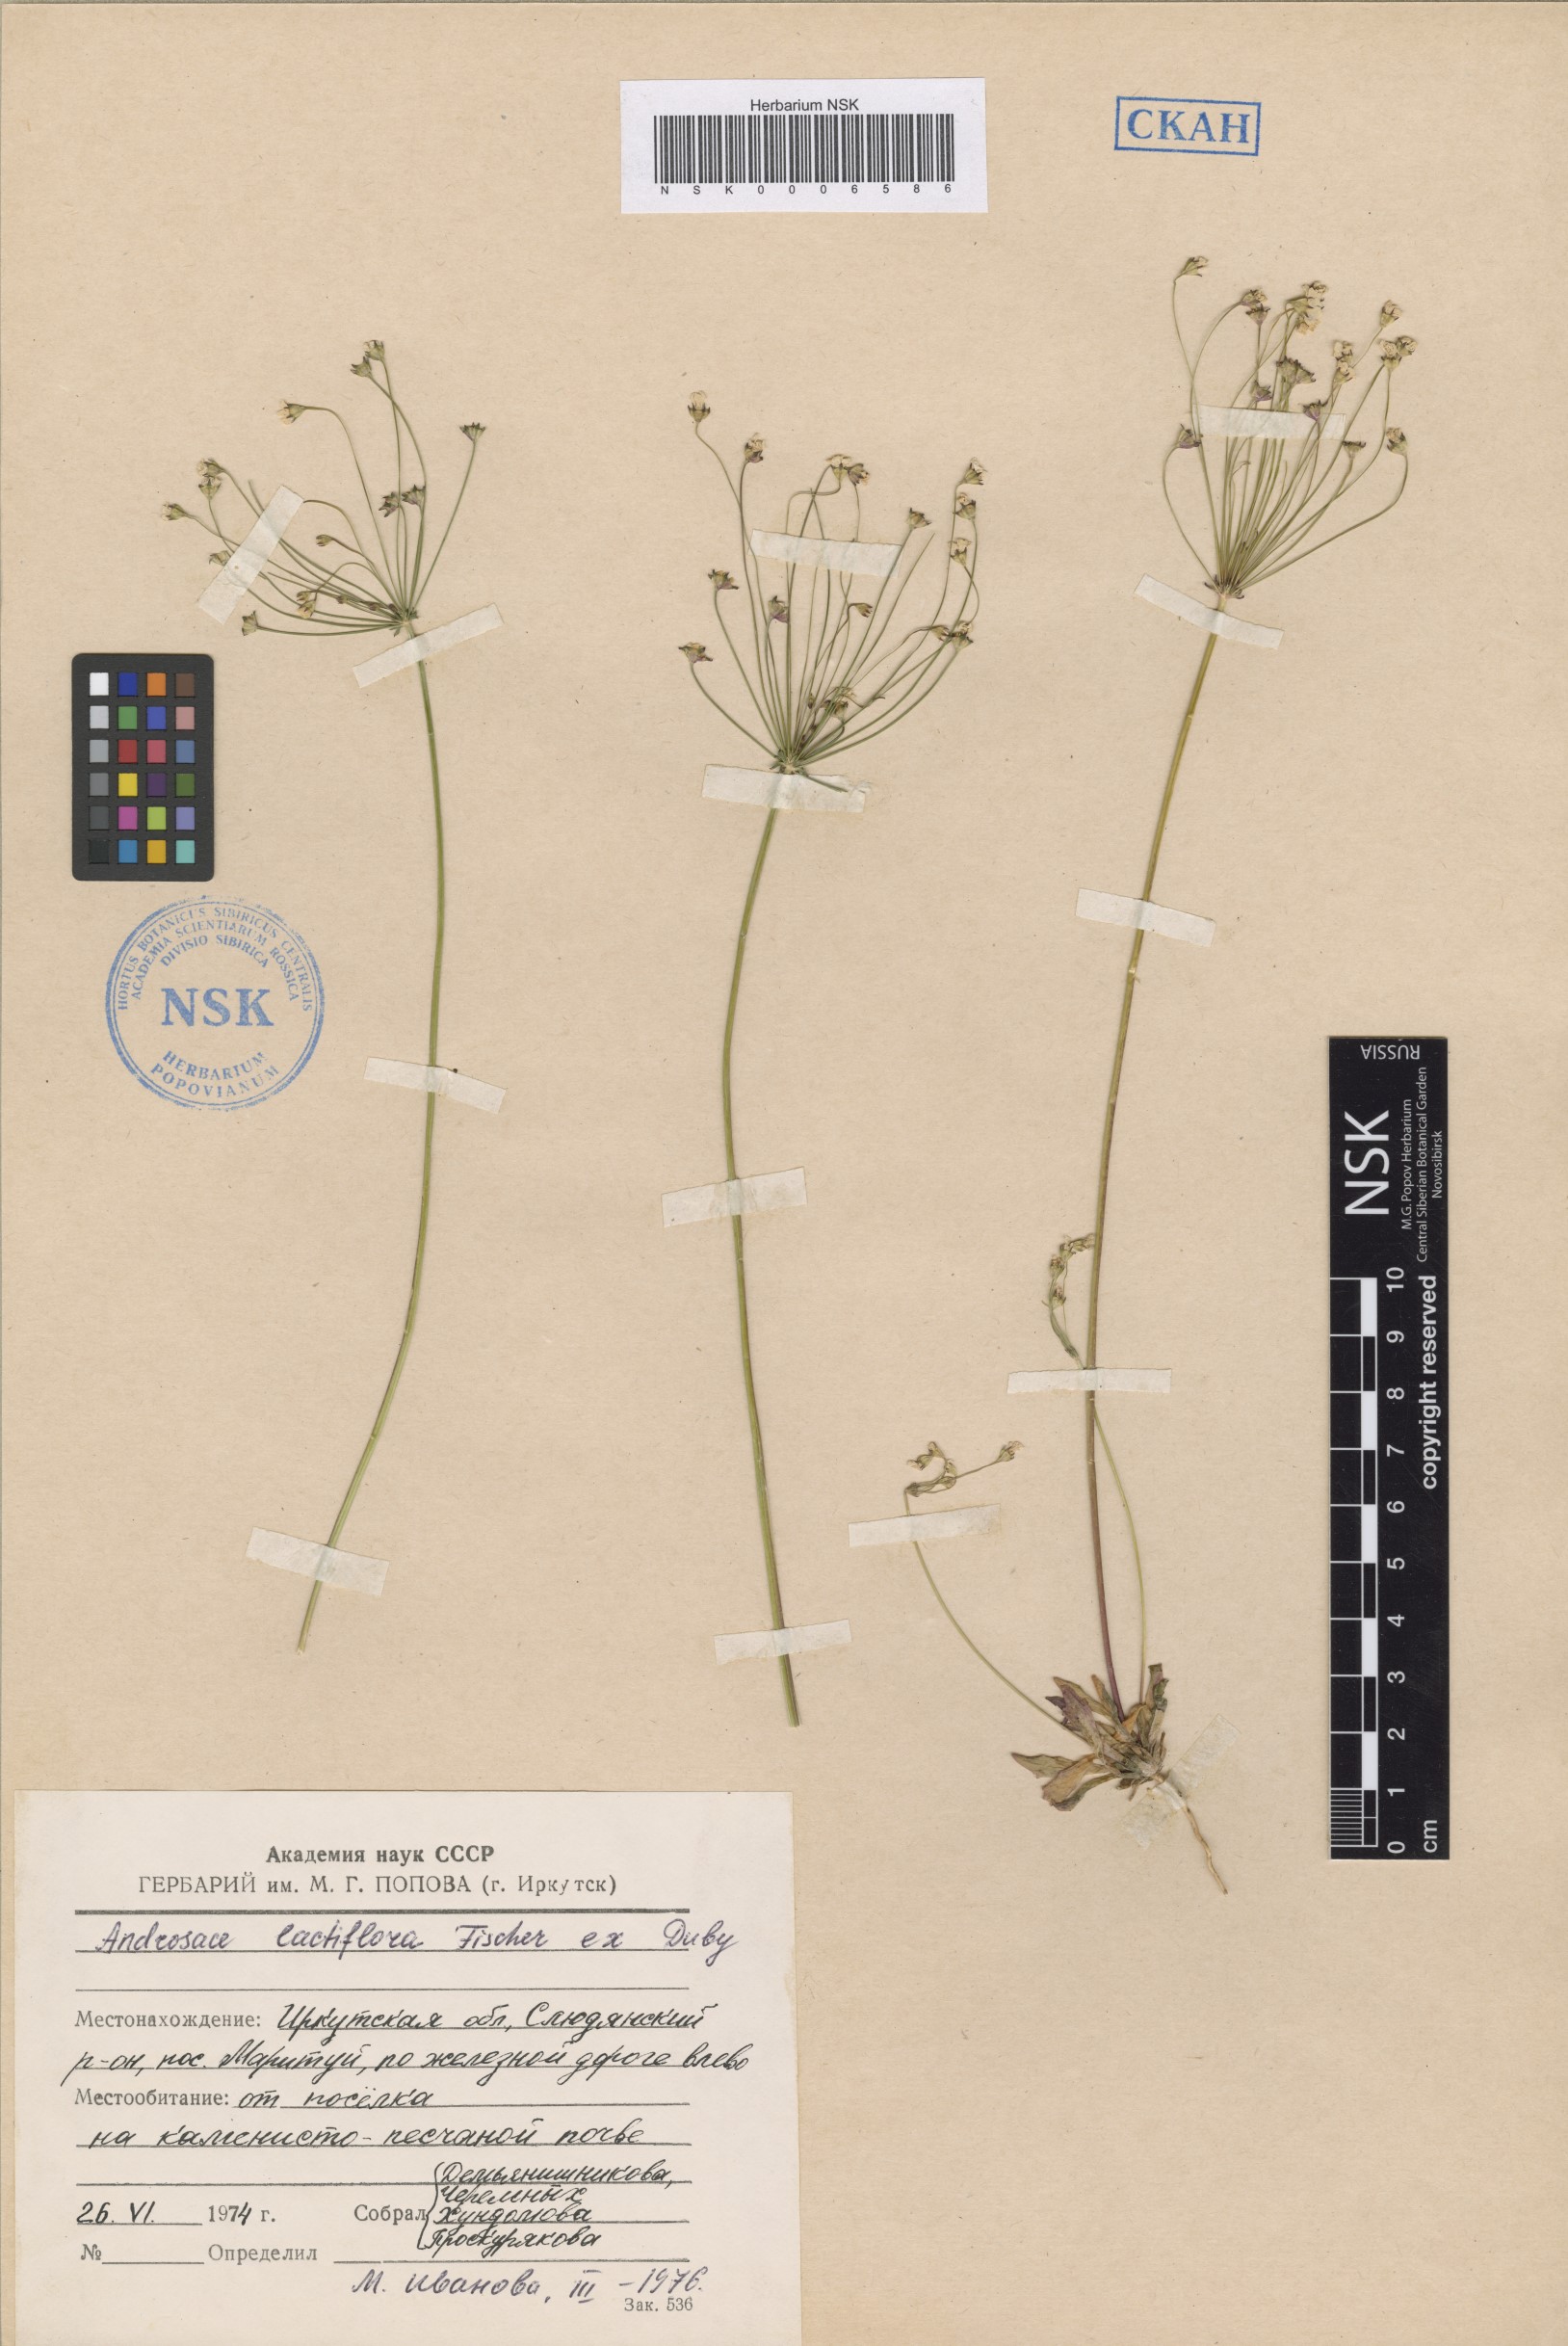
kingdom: Plantae
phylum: Tracheophyta
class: Magnoliopsida
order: Ericales
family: Primulaceae
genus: Androsace
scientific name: Androsace lactiflora
